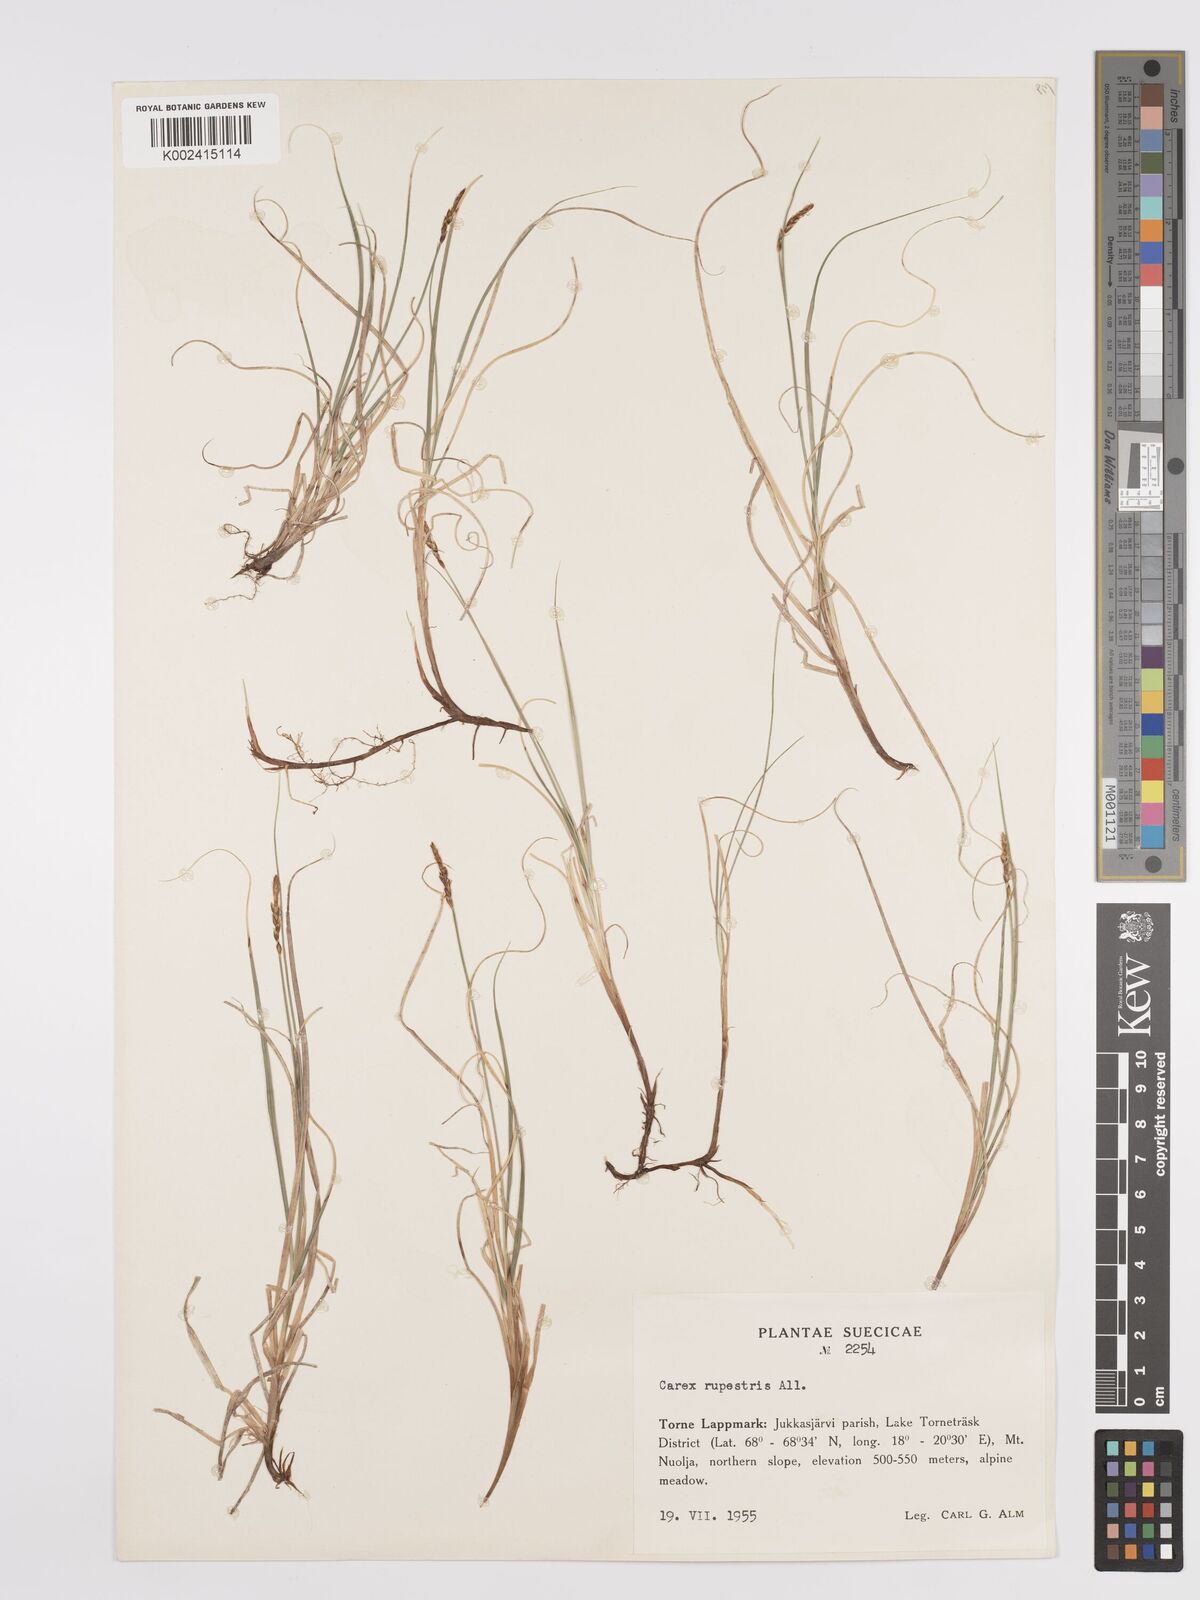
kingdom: Plantae
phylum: Tracheophyta
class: Liliopsida
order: Poales
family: Cyperaceae
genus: Carex
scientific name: Carex rupestris
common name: Rock sedge
